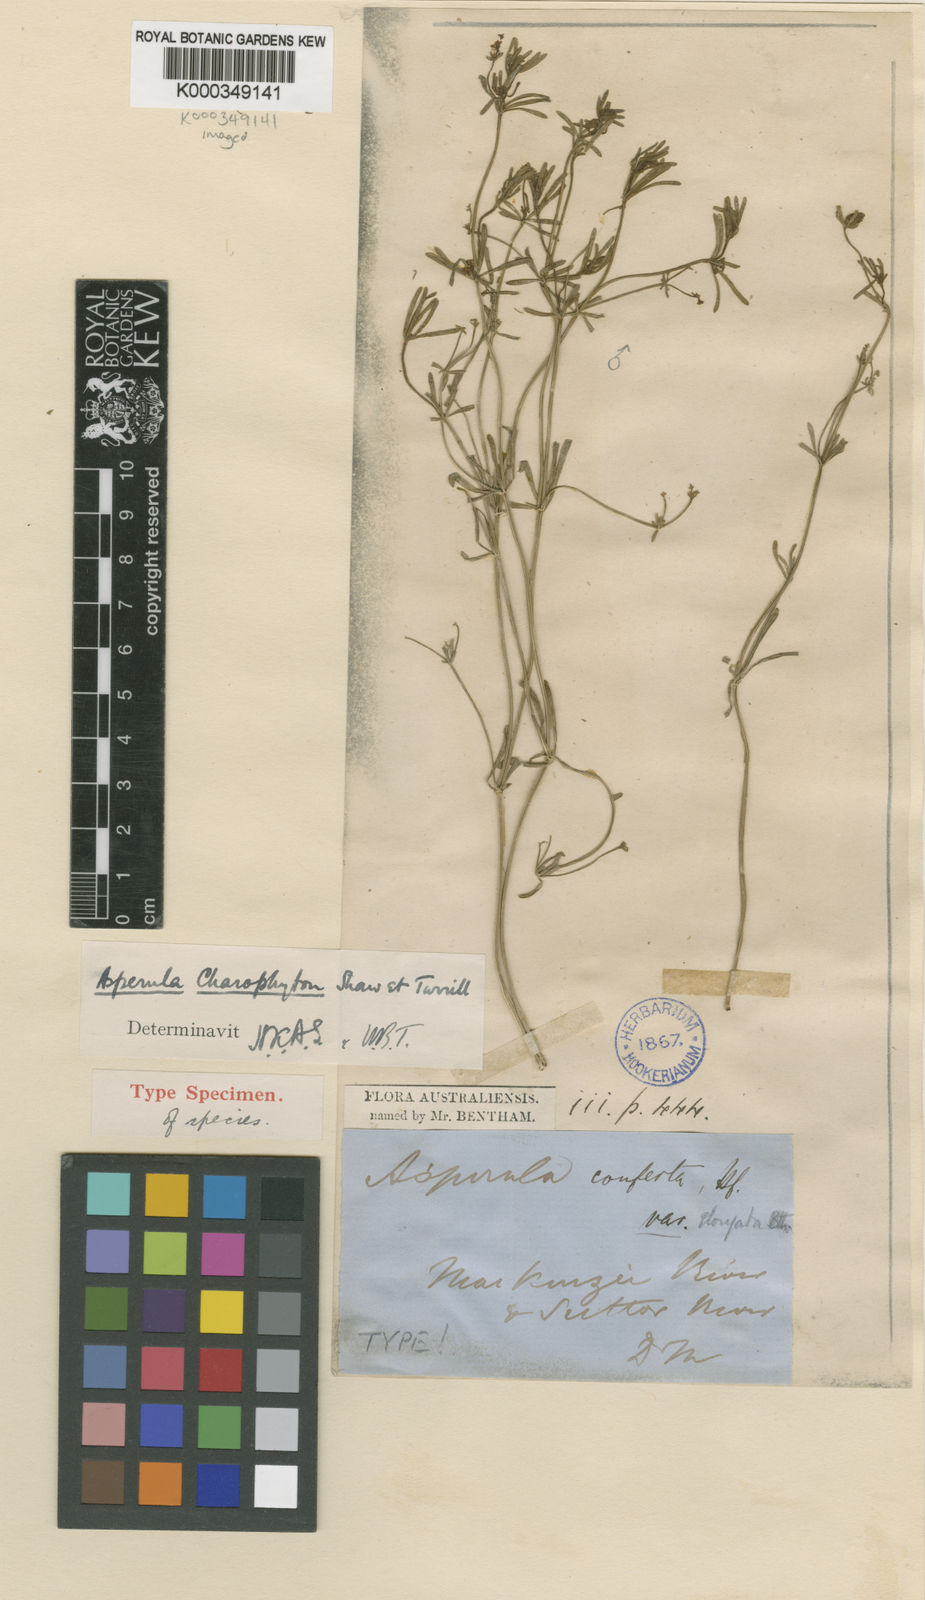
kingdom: Plantae
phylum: Tracheophyta
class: Magnoliopsida
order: Gentianales
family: Rubiaceae
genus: Asperula
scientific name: Asperula charophyton
